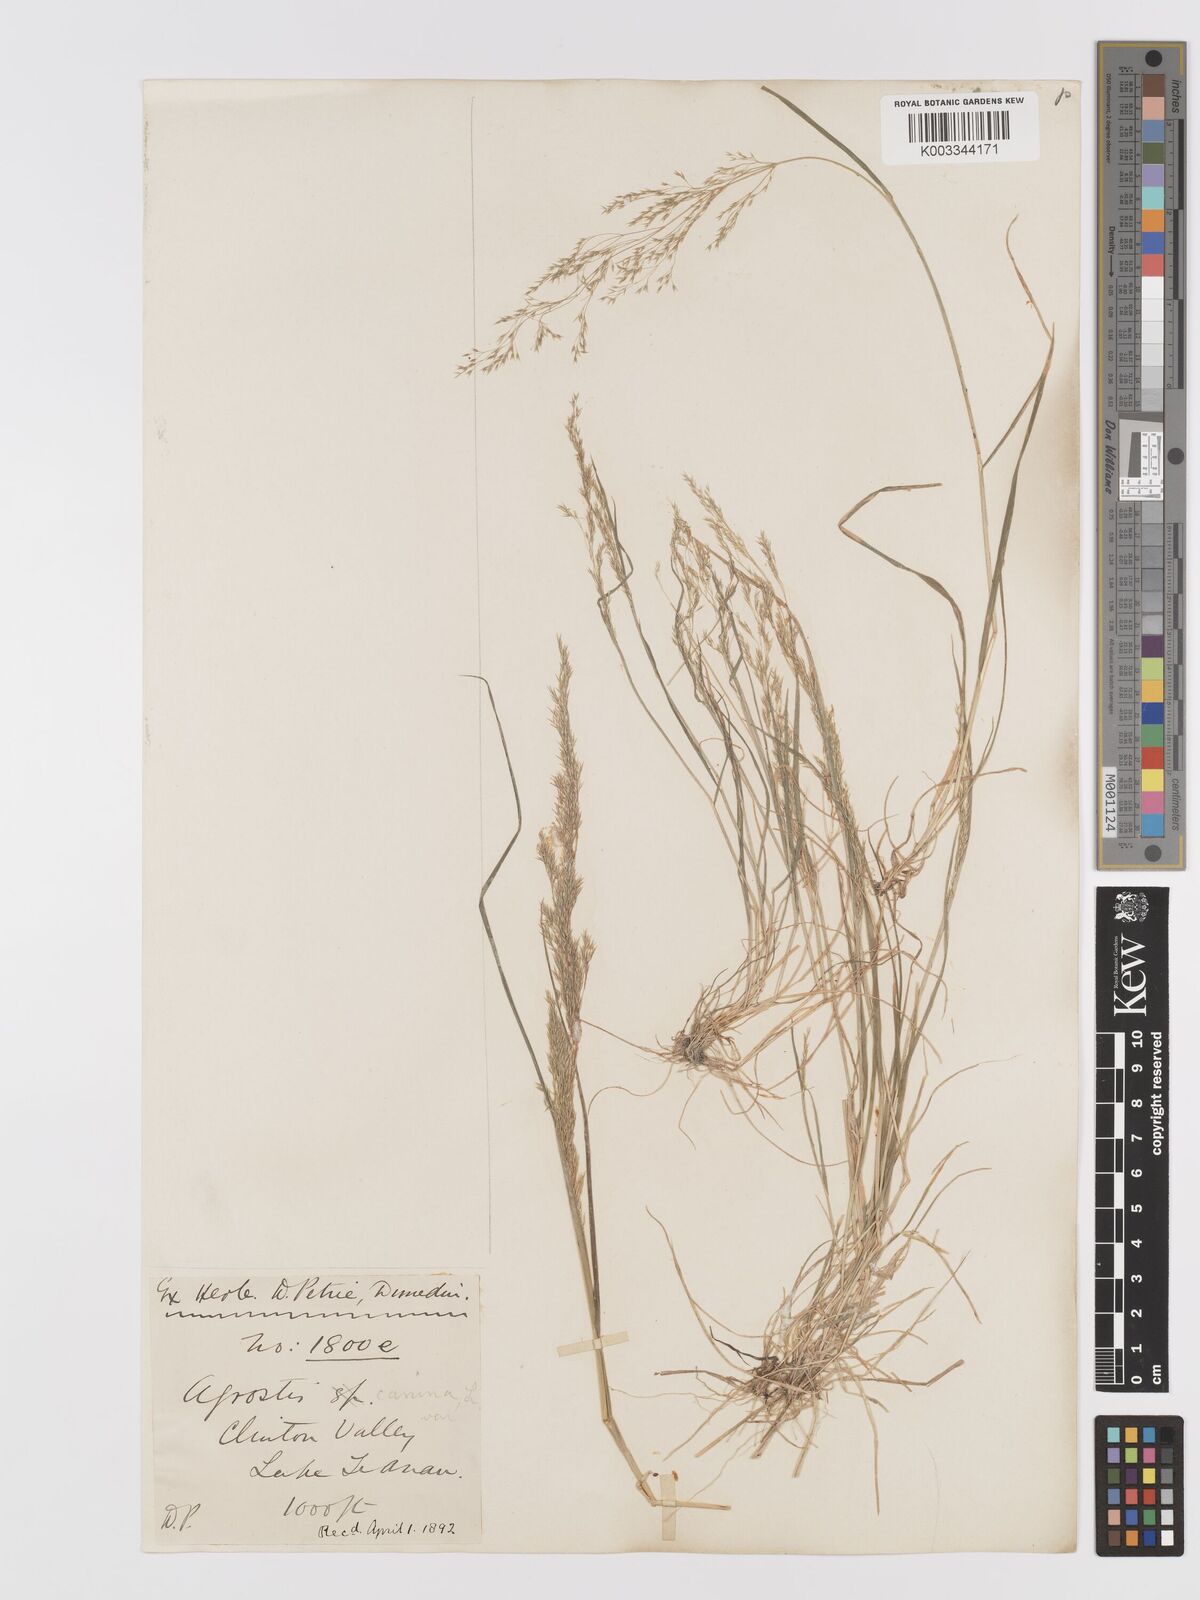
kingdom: Plantae
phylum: Tracheophyta
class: Liliopsida
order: Poales
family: Poaceae
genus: Agrostis
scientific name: Agrostis personata
